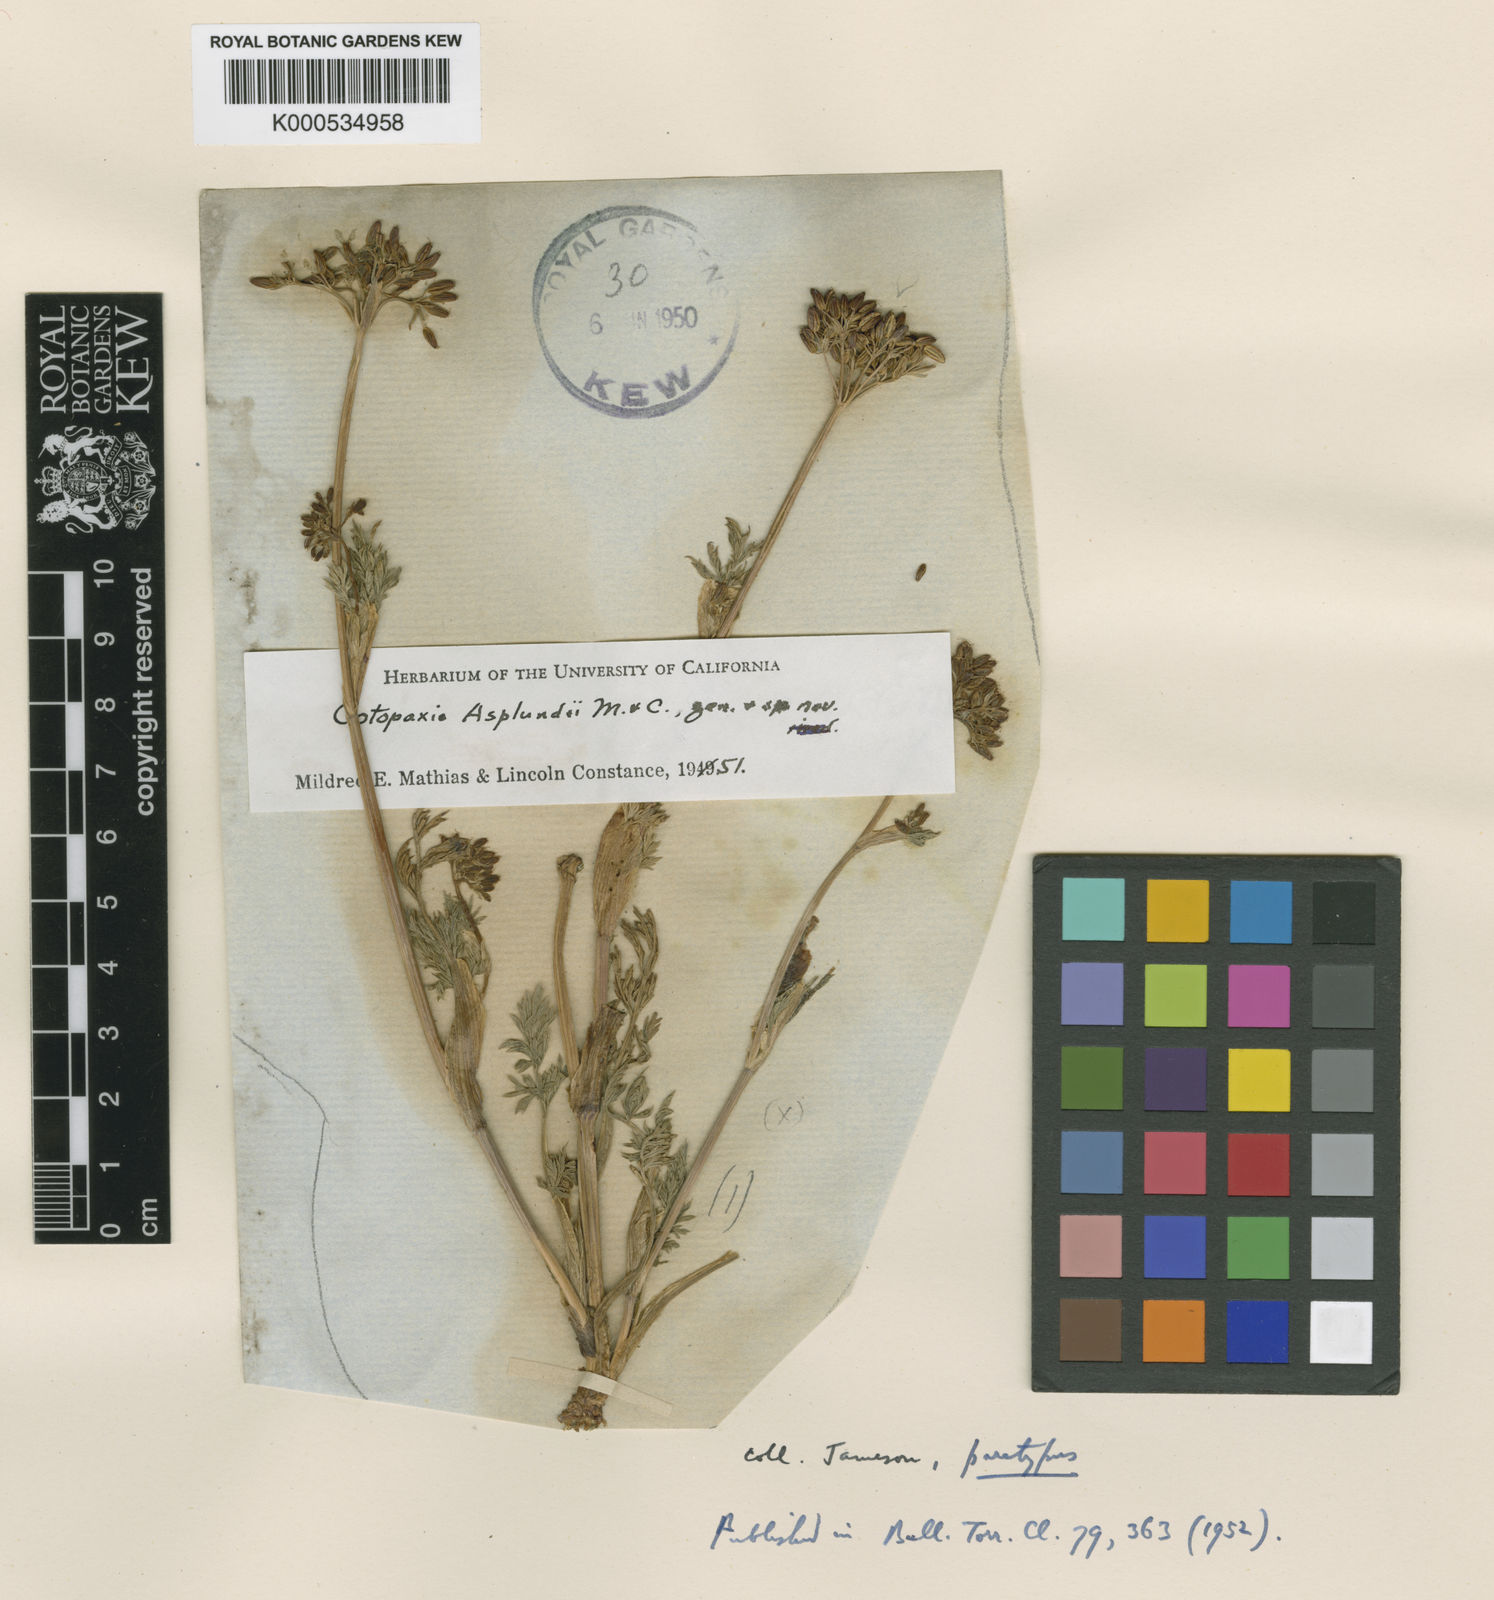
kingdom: Plantae
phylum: Tracheophyta
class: Magnoliopsida
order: Apiales
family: Apiaceae
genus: Cotopaxia
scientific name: Cotopaxia asplundii
